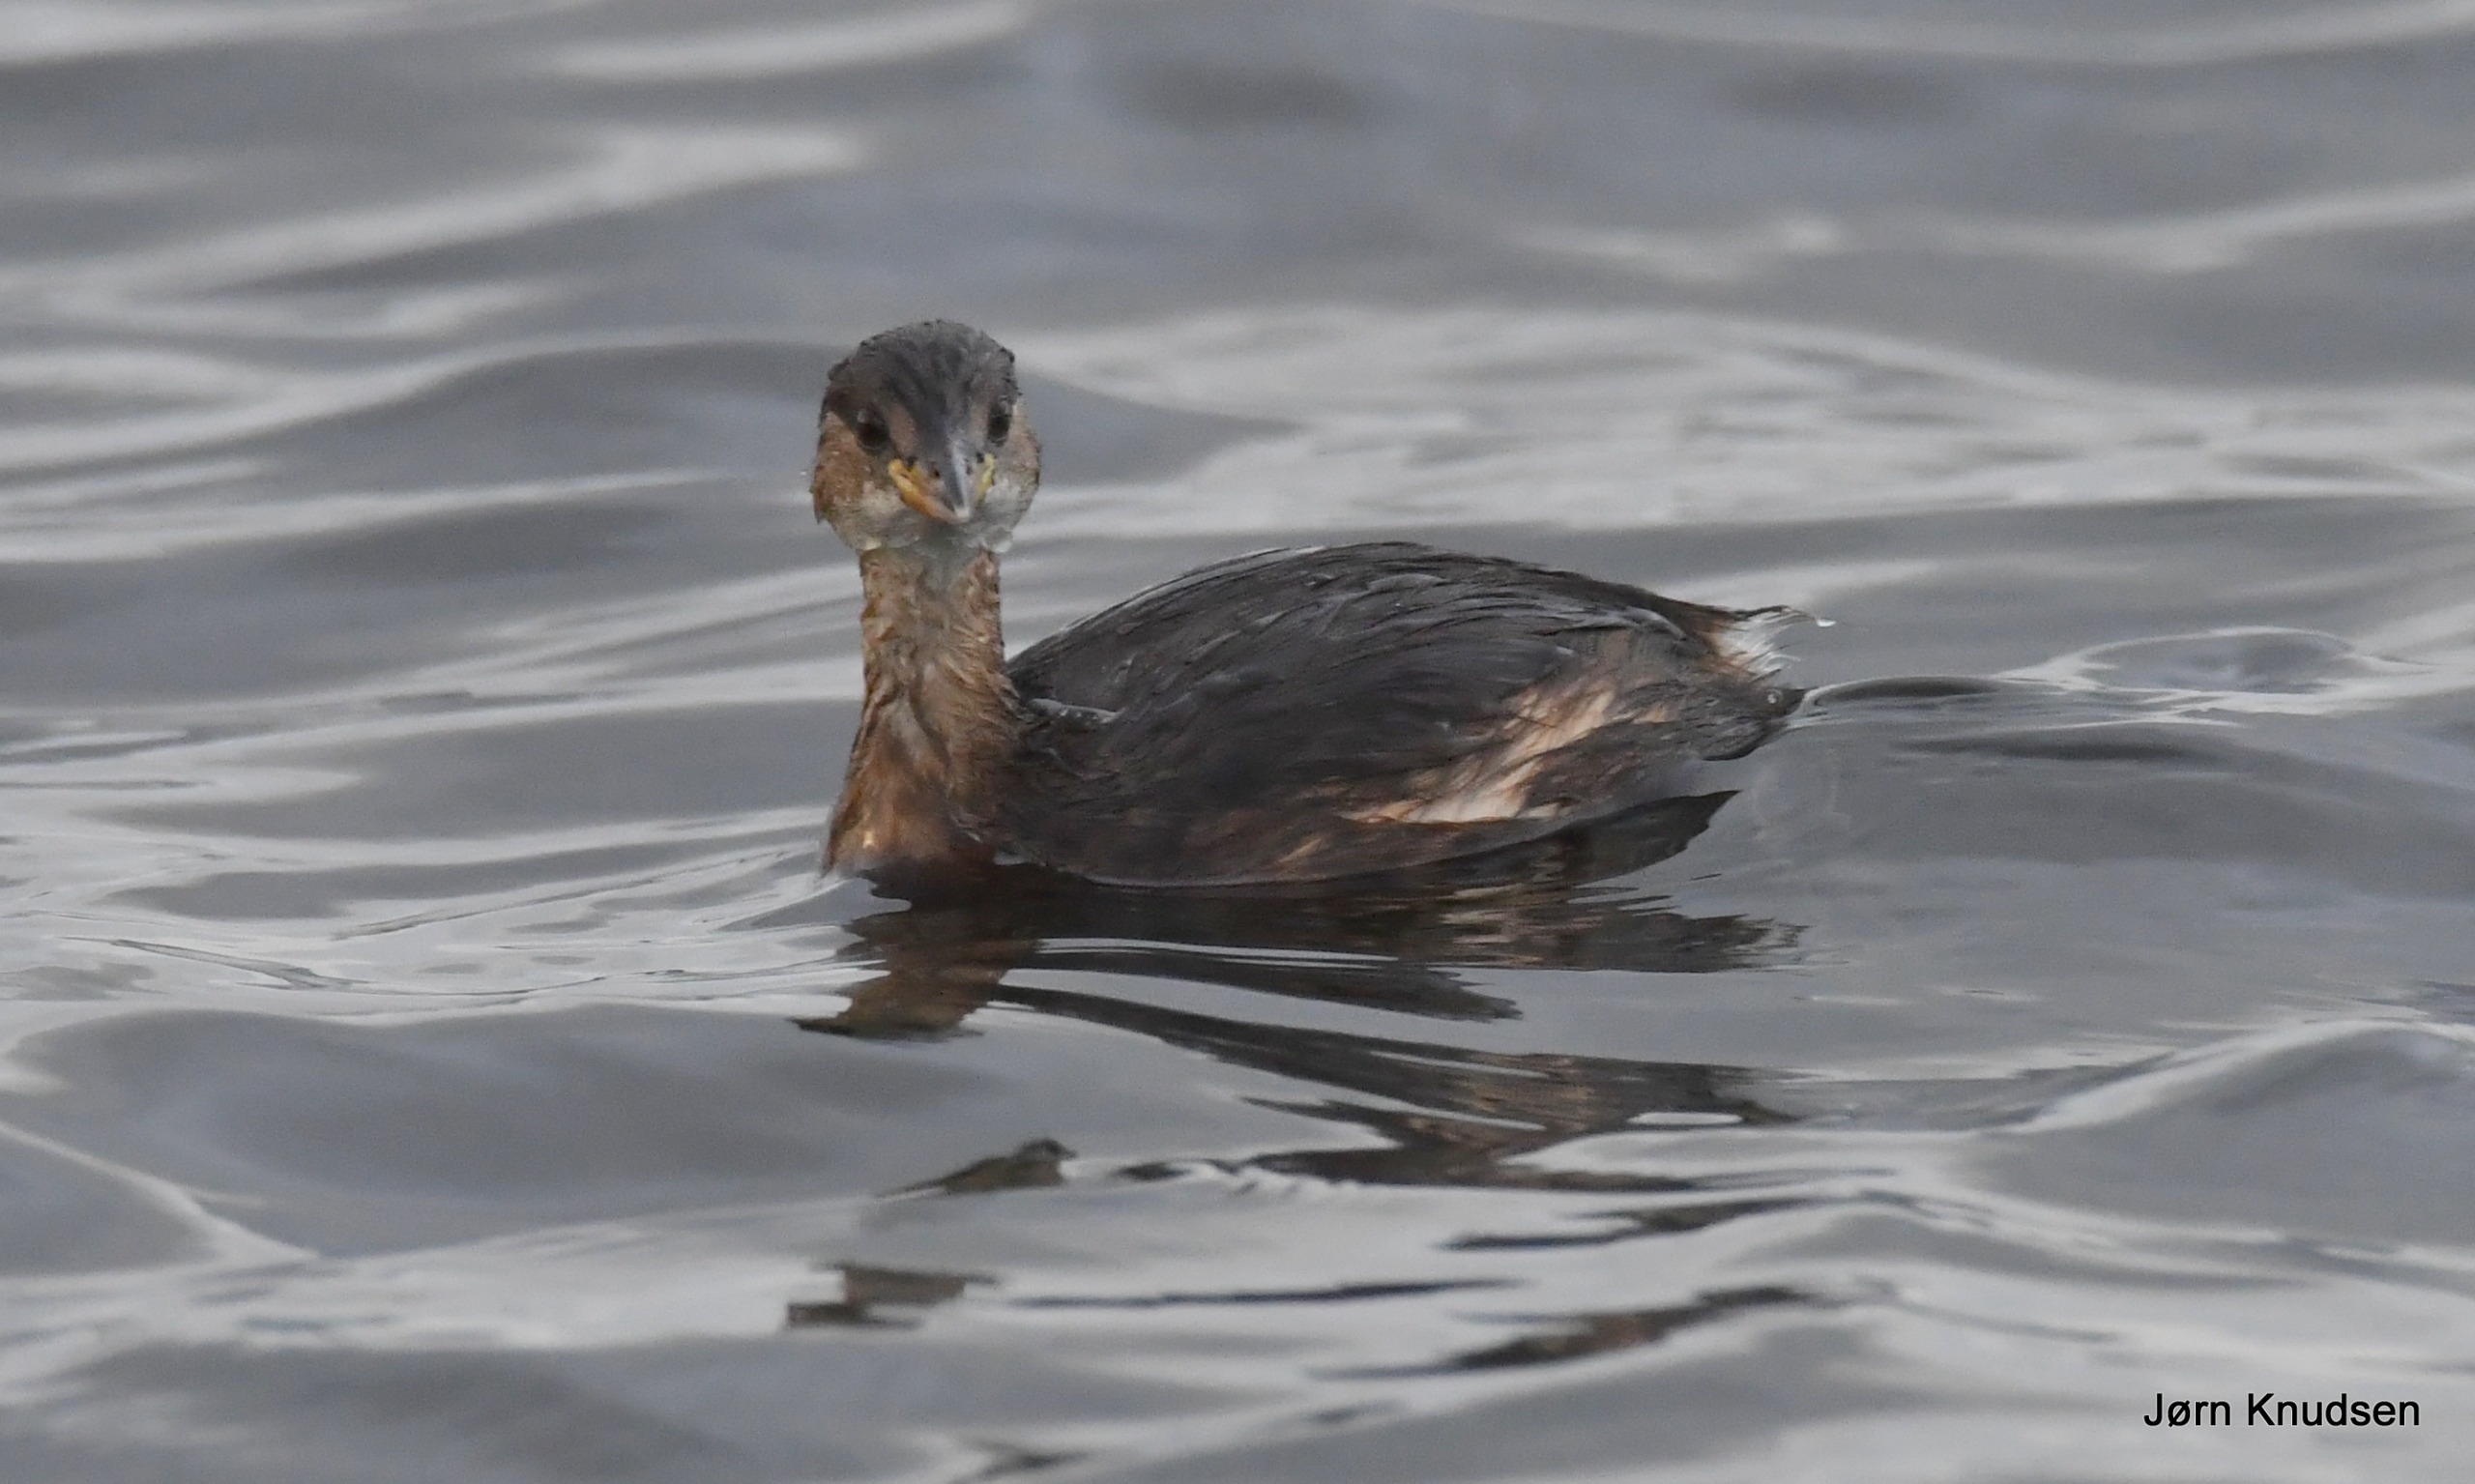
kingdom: Animalia
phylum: Chordata
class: Aves
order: Podicipediformes
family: Podicipedidae
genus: Tachybaptus
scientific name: Tachybaptus ruficollis
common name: Lille lappedykker
